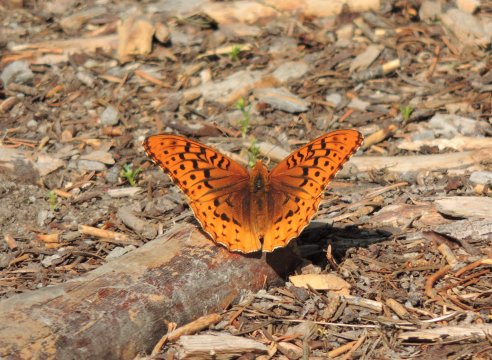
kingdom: Animalia
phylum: Arthropoda
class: Insecta
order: Lepidoptera
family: Nymphalidae
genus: Speyeria
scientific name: Speyeria cybele
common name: Great Spangled Fritillary
